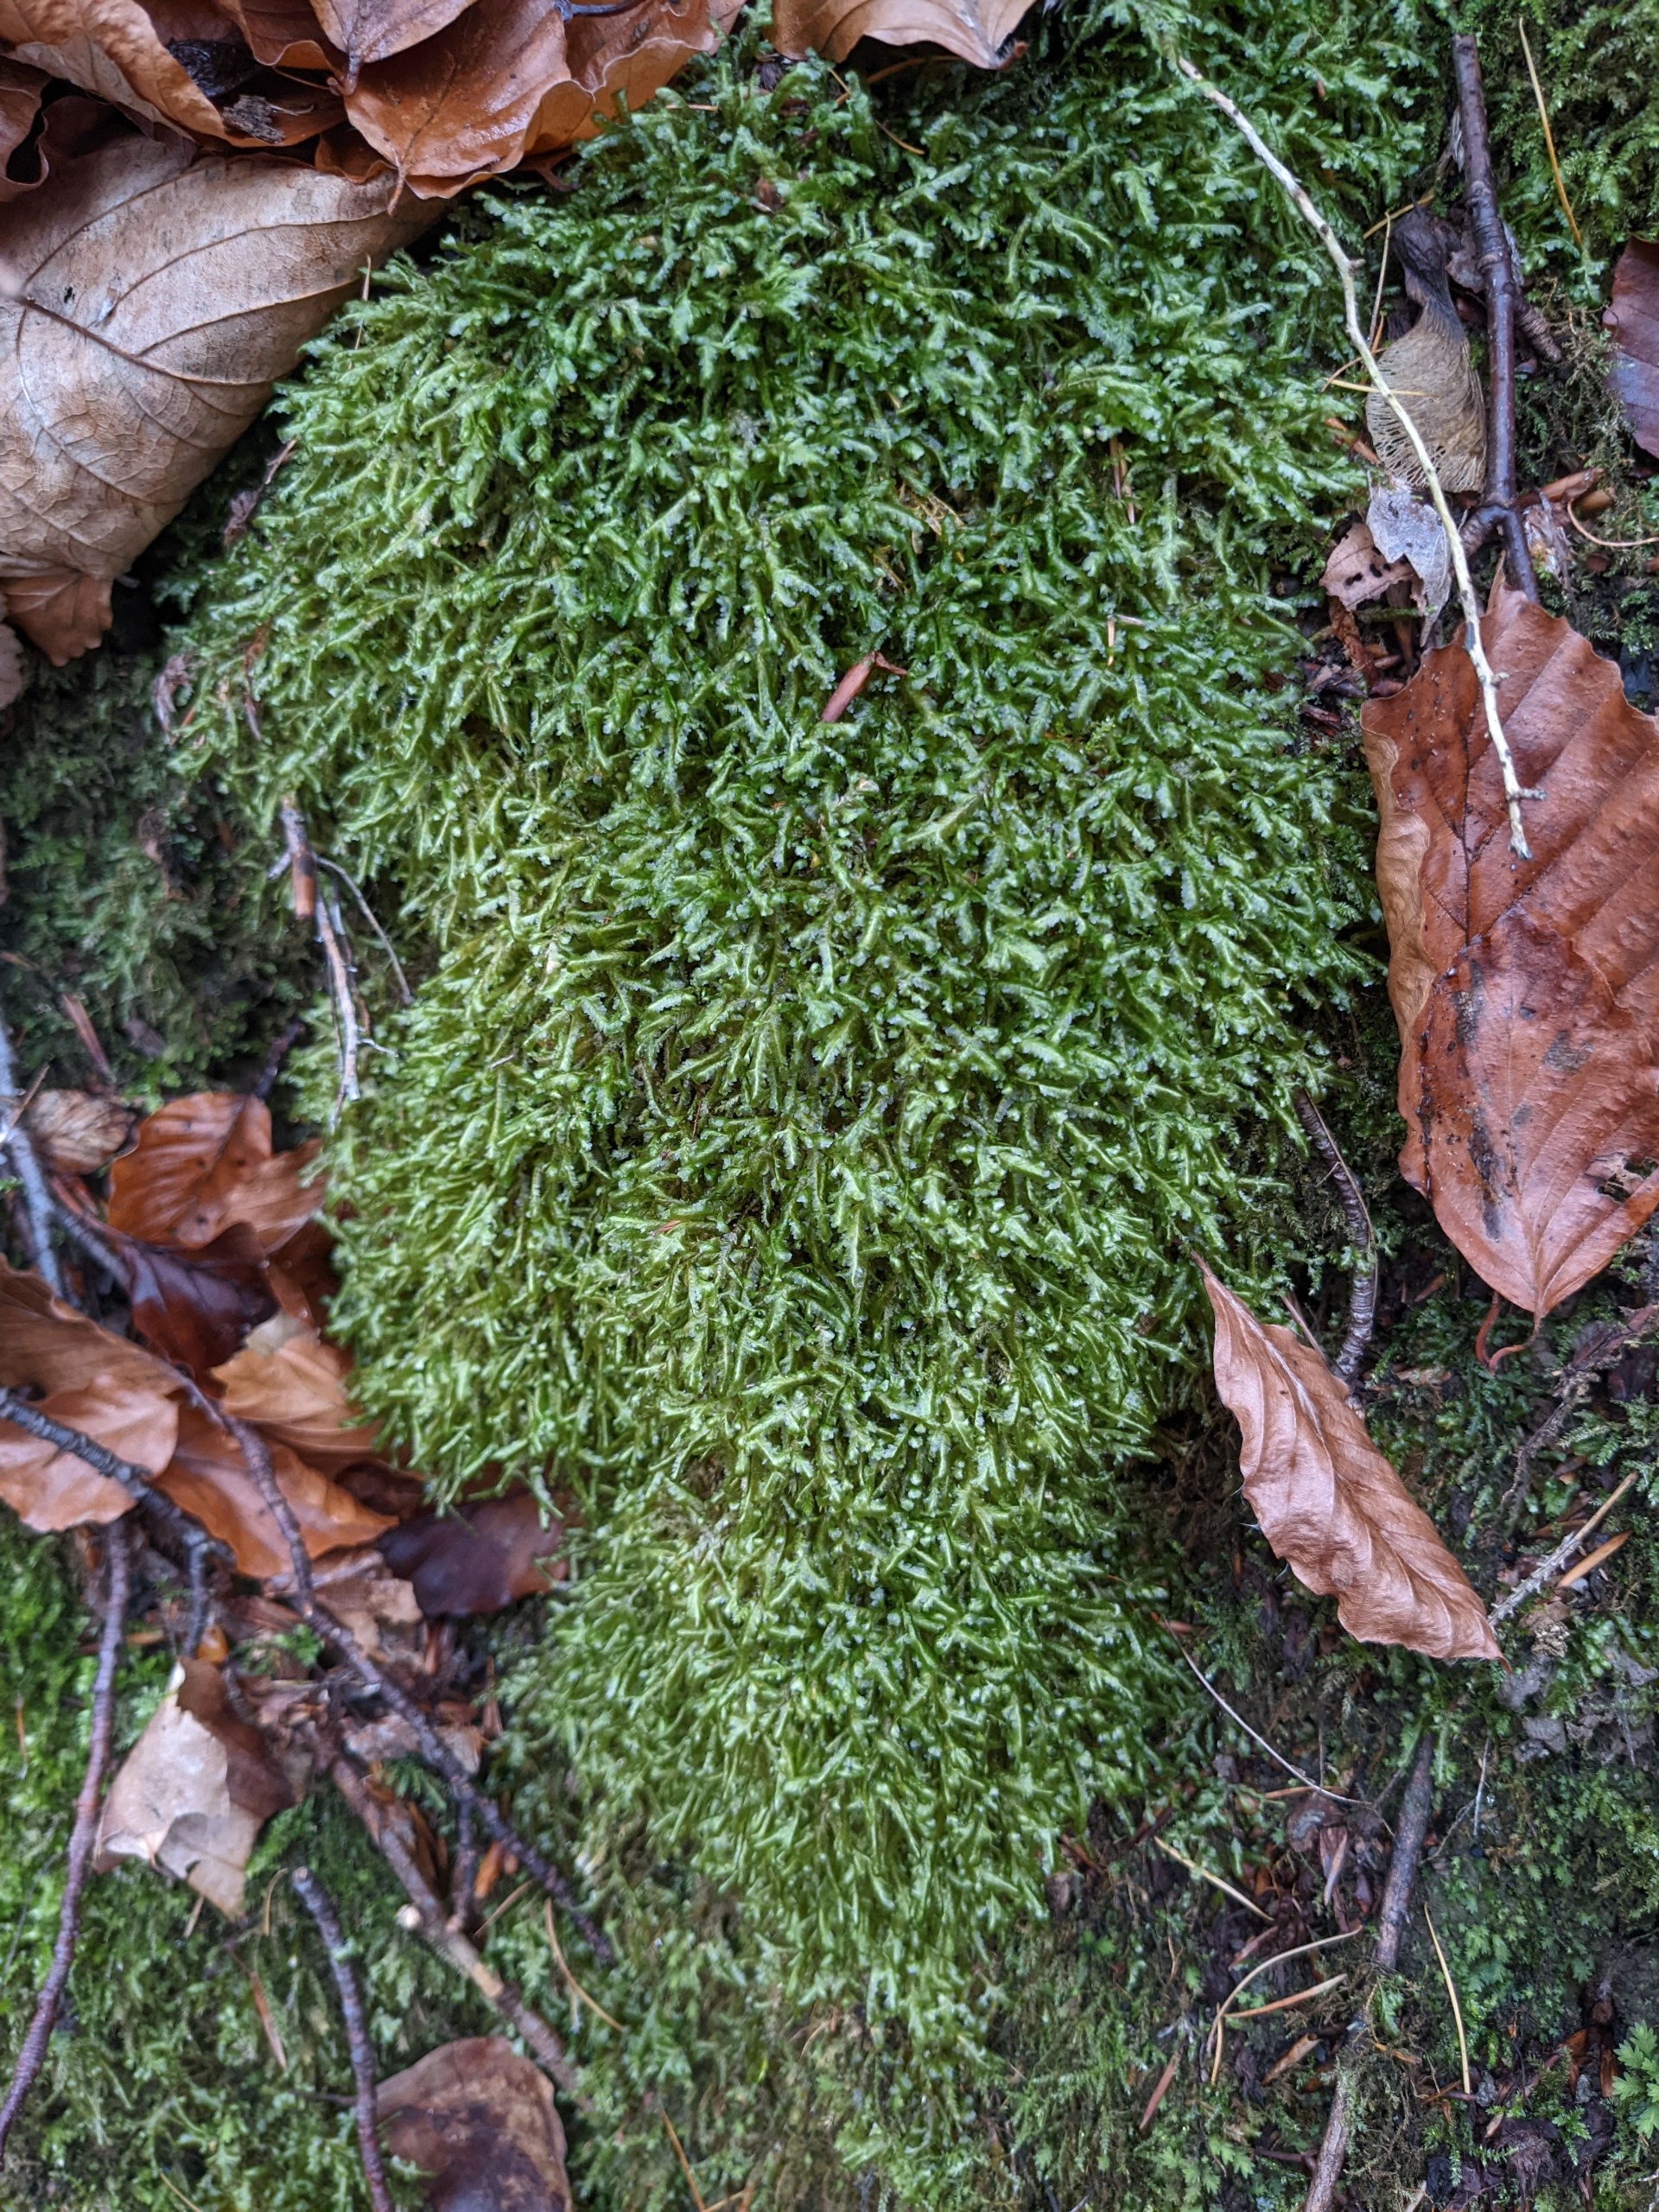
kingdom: Plantae
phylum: Bryophyta
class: Bryopsida
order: Hypnales
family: Neckeraceae
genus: Homalia
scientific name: Homalia trichomanoides
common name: Skov-tungemos
